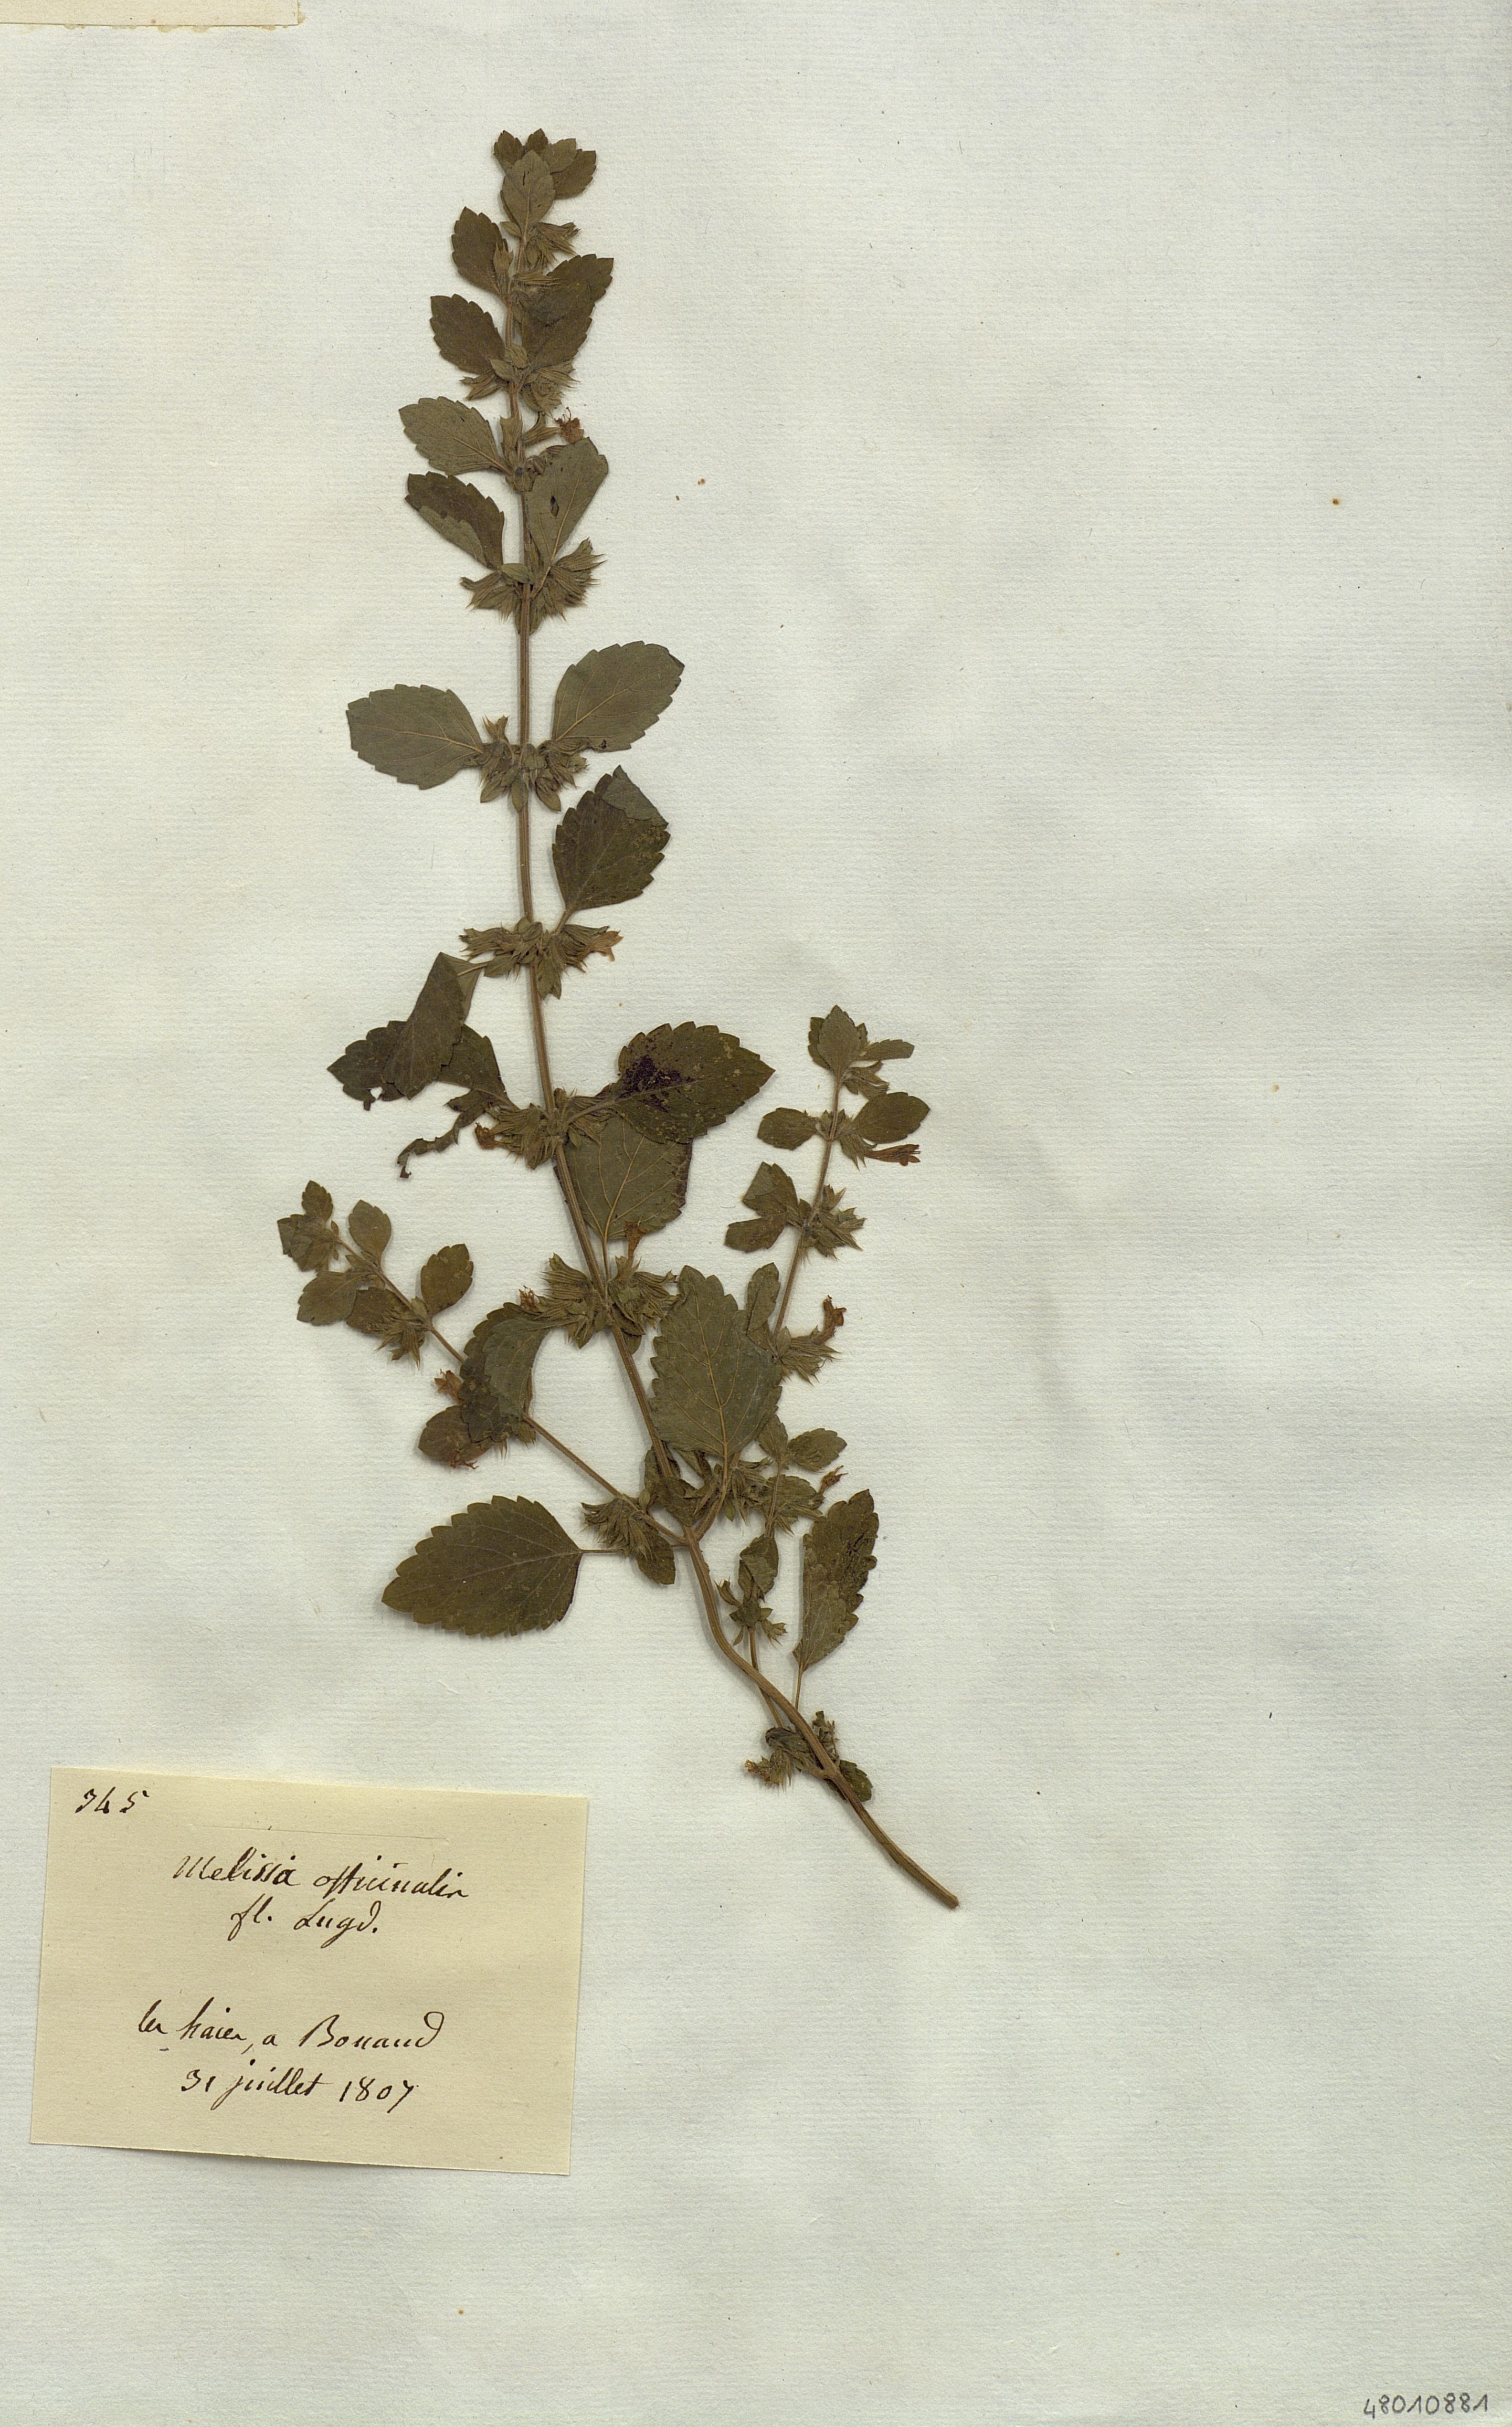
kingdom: Plantae
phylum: Tracheophyta
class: Magnoliopsida
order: Lamiales
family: Lamiaceae
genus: Melissa
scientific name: Melissa officinalis
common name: Balm
